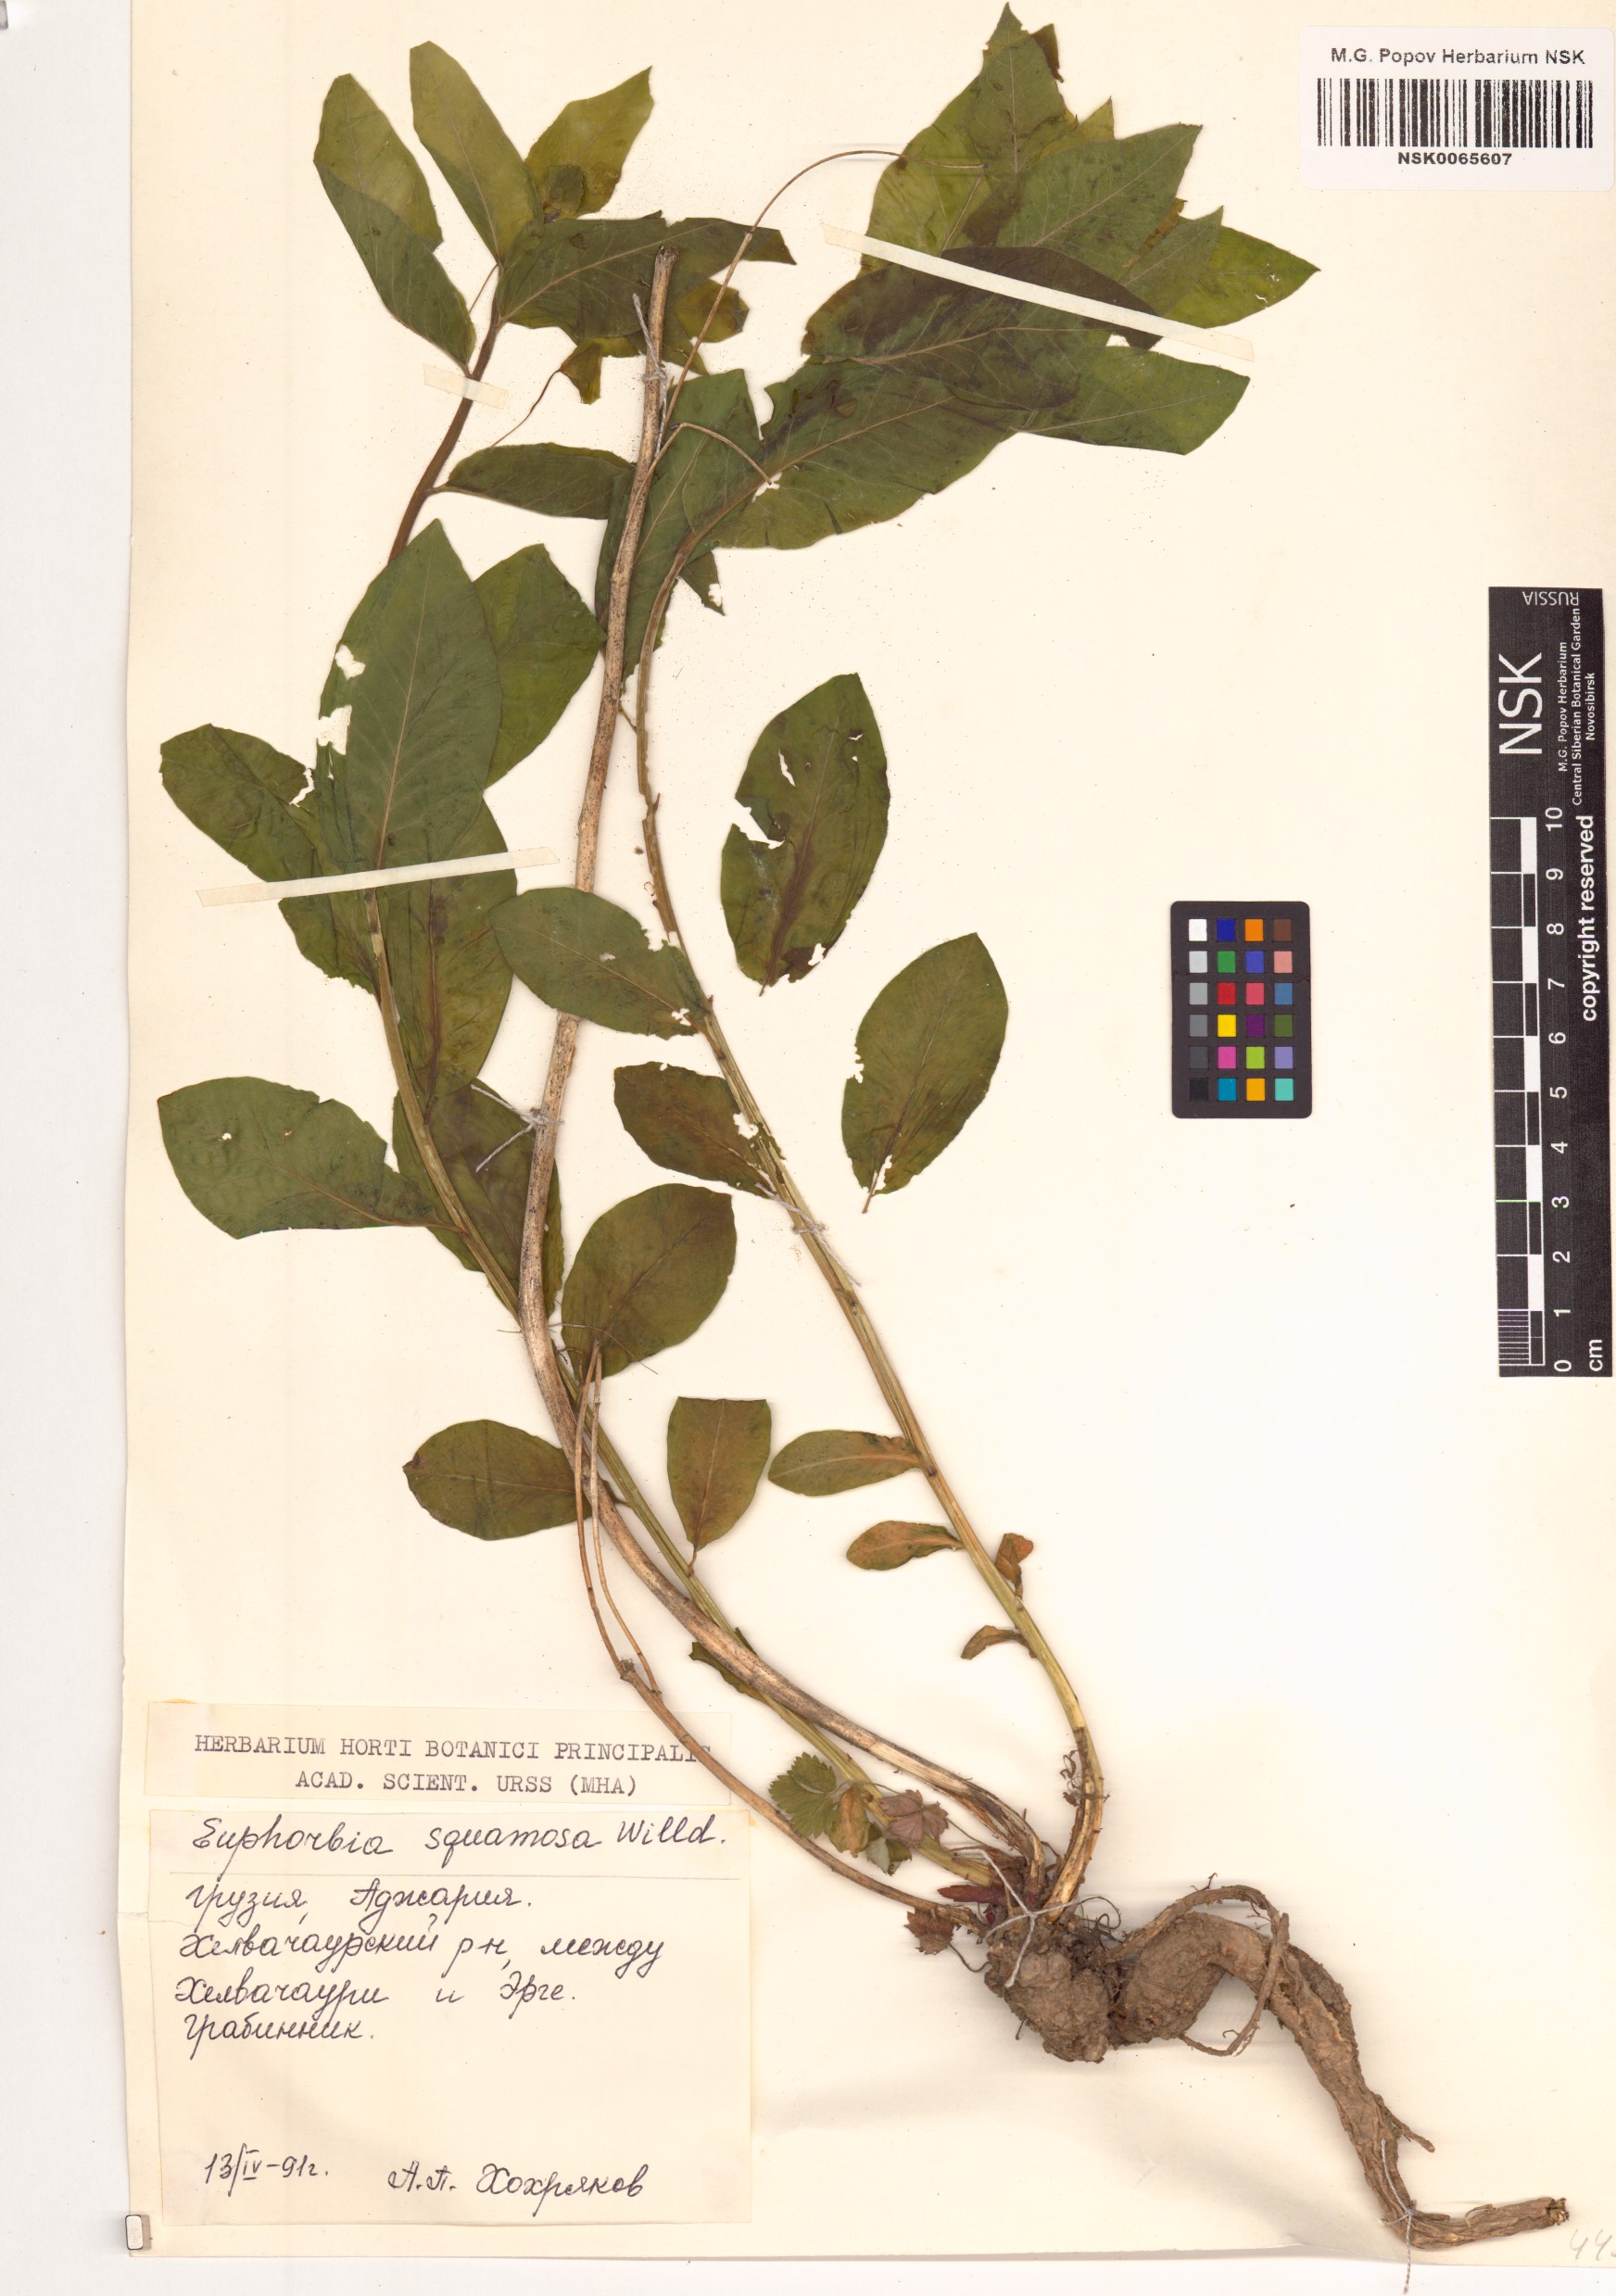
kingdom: Plantae
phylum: Tracheophyta
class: Magnoliopsida
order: Malpighiales
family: Euphorbiaceae
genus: Euphorbia
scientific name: Euphorbia squamosa
